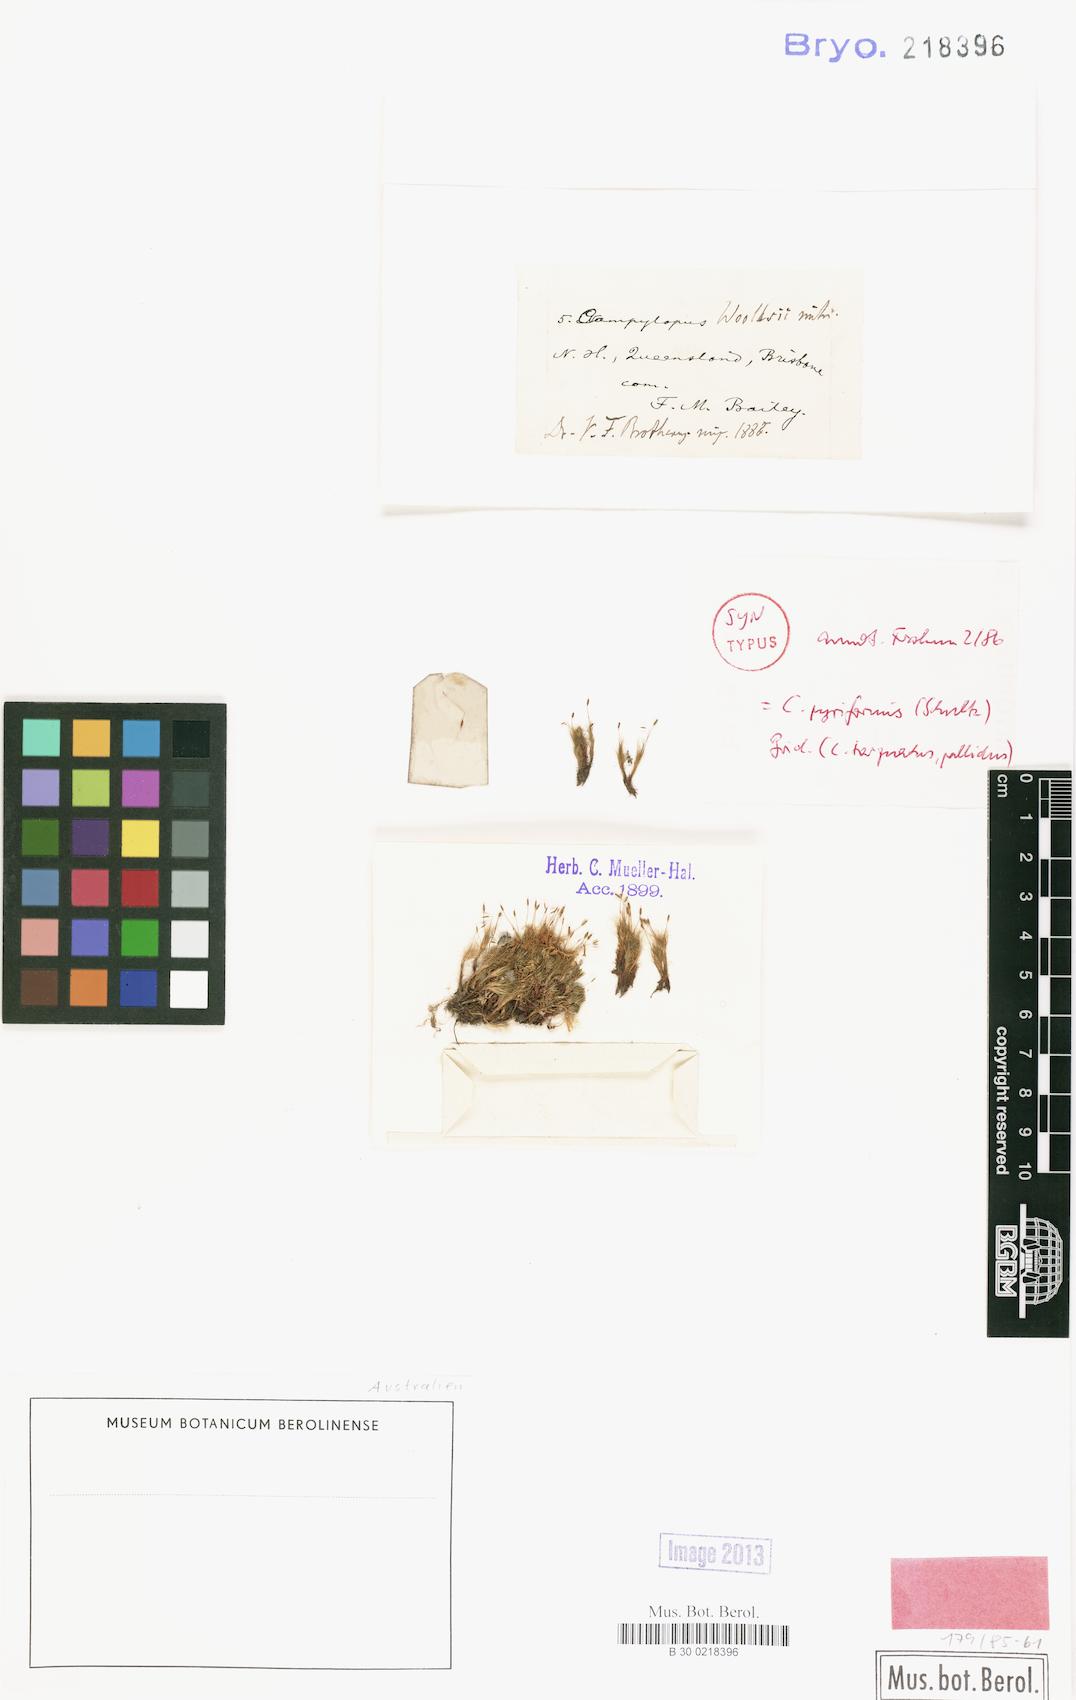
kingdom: Plantae
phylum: Bryophyta
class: Bryopsida
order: Dicranales
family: Leucobryaceae
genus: Campylopus
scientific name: Campylopus pyriformis
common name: Dwarf swan-neck moss
